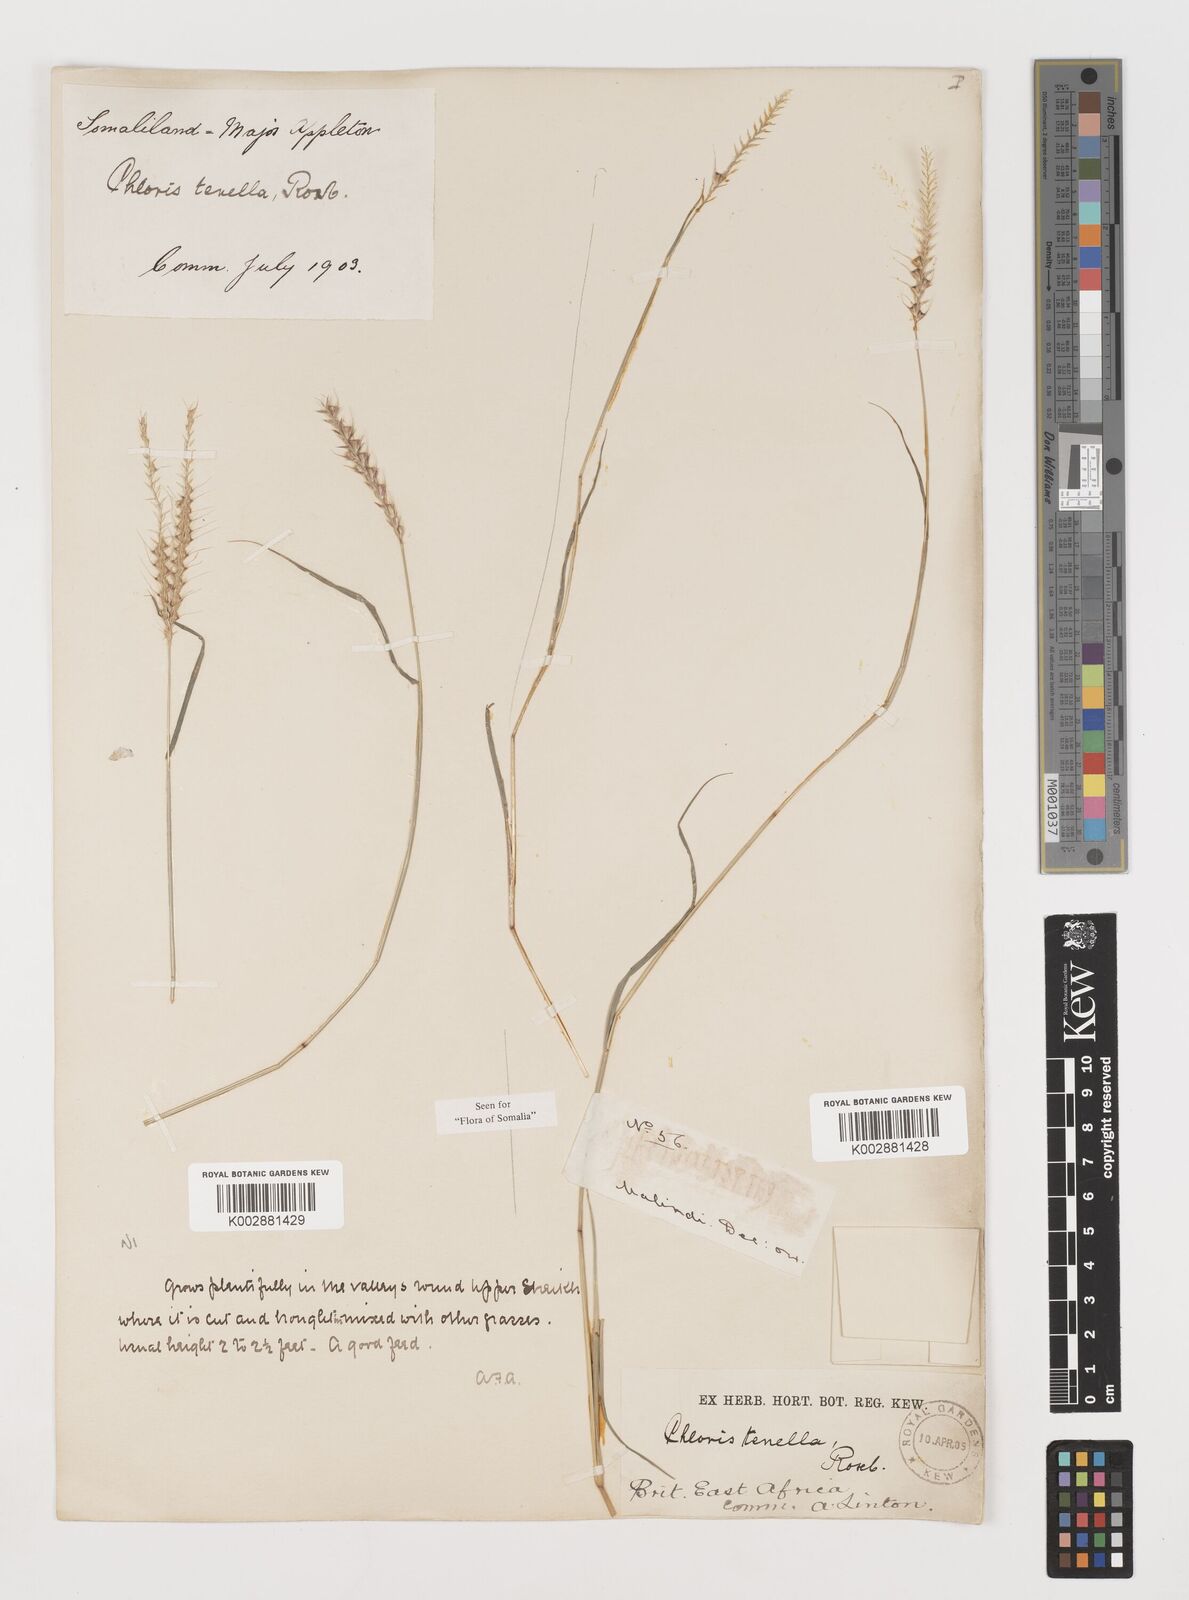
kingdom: Plantae
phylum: Tracheophyta
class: Liliopsida
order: Poales
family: Poaceae
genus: Tetrapogon
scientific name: Tetrapogon tenellus
